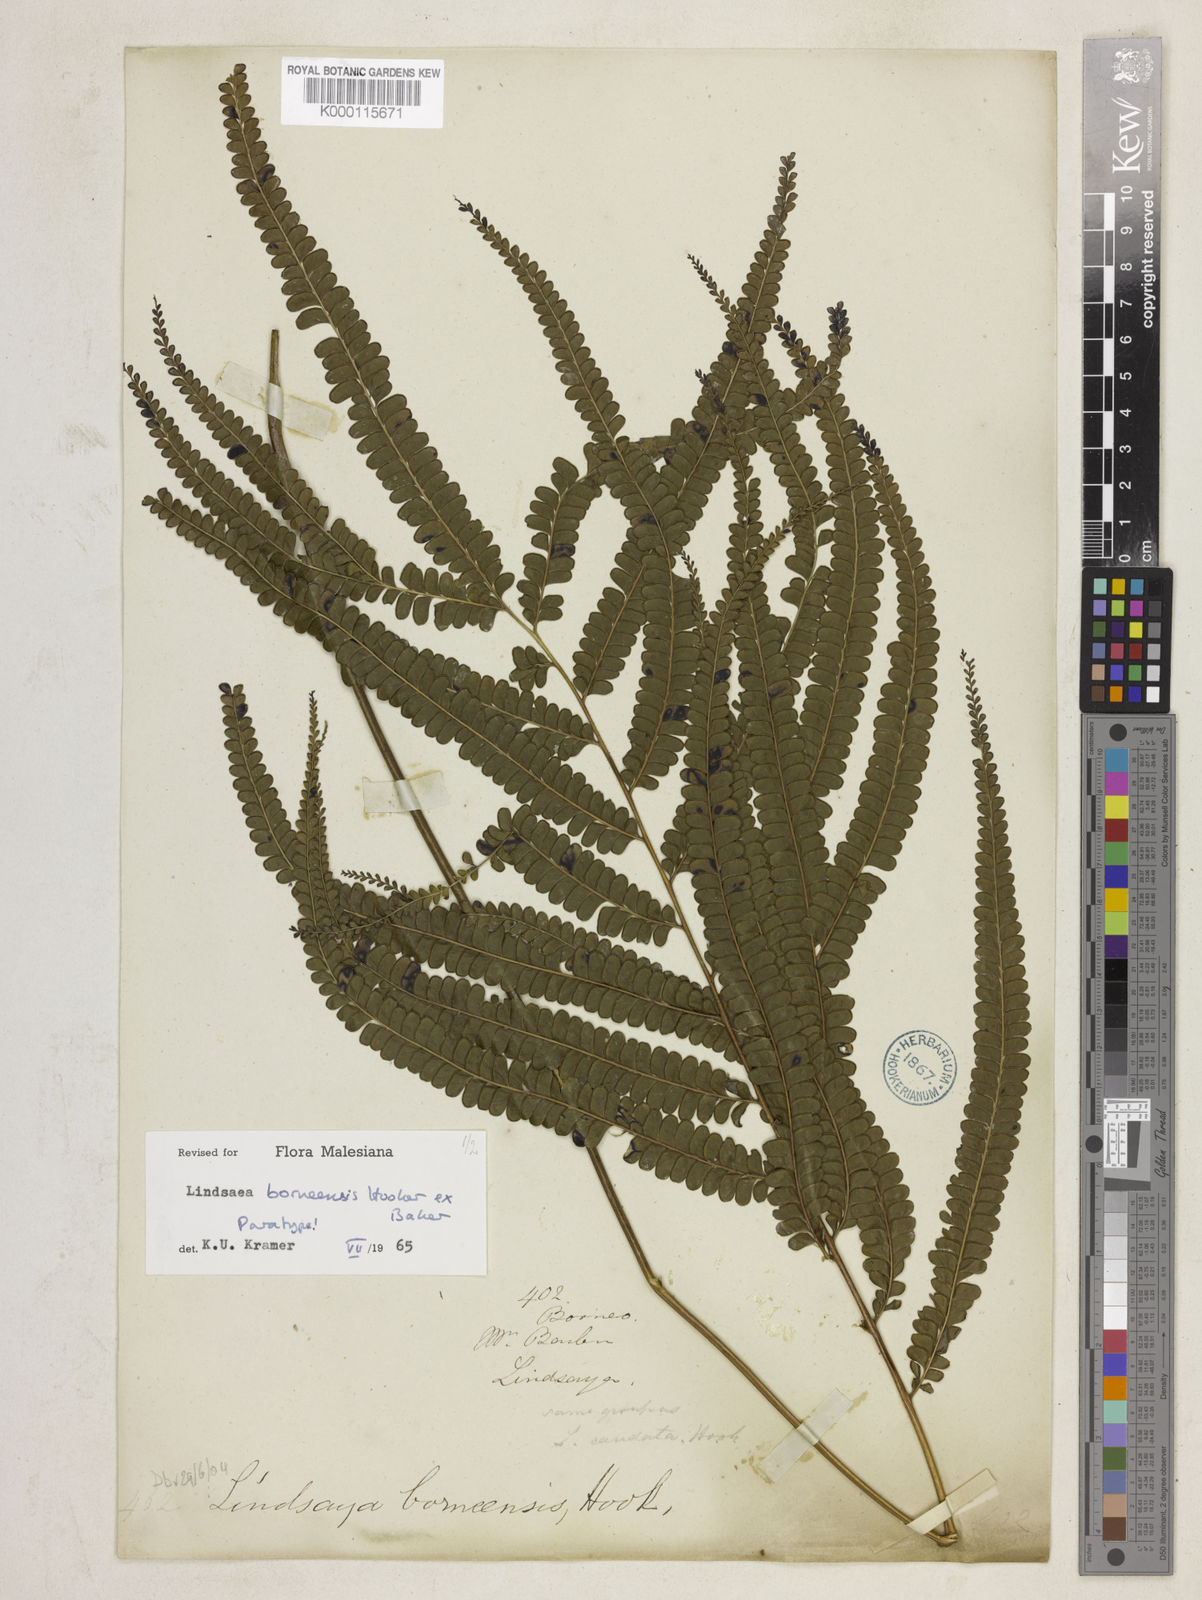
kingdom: Plantae
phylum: Tracheophyta
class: Polypodiopsida
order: Polypodiales
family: Lindsaeaceae
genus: Lindsaea
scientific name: Lindsaea
